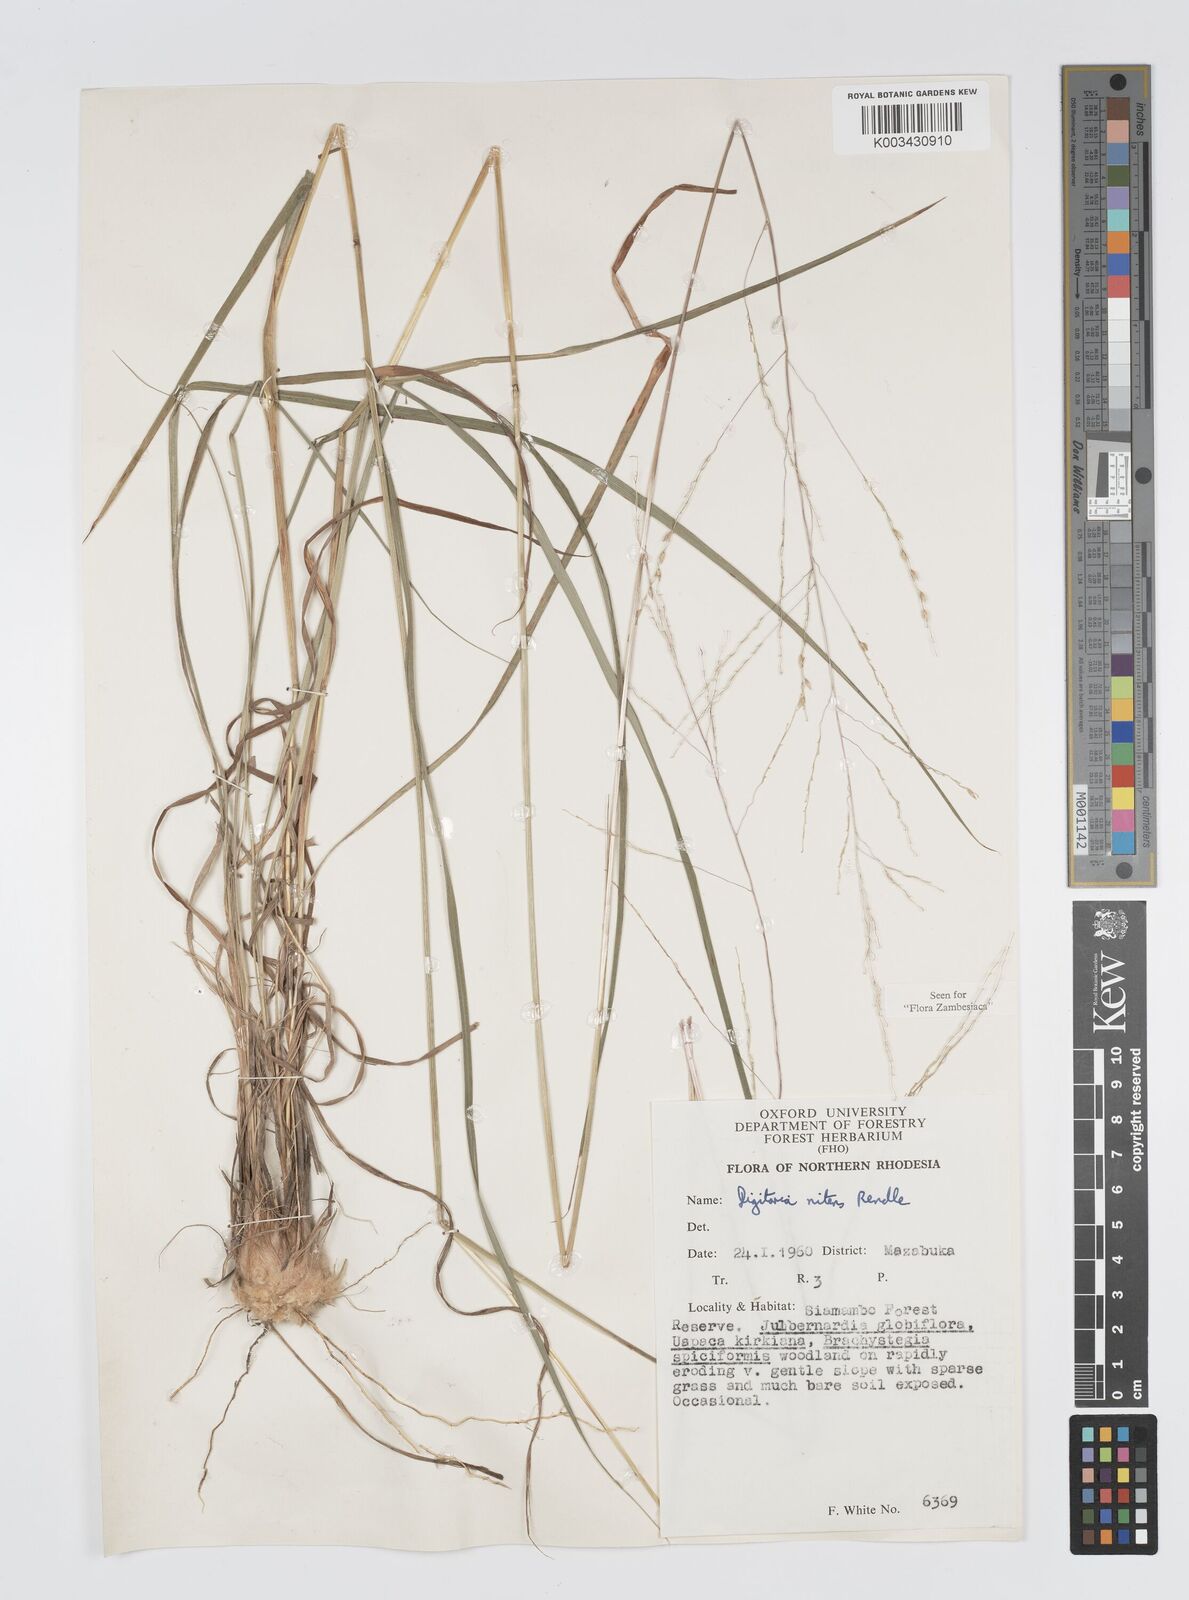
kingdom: Plantae
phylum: Tracheophyta
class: Liliopsida
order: Poales
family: Poaceae
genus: Digitaria
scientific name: Digitaria flaccida
